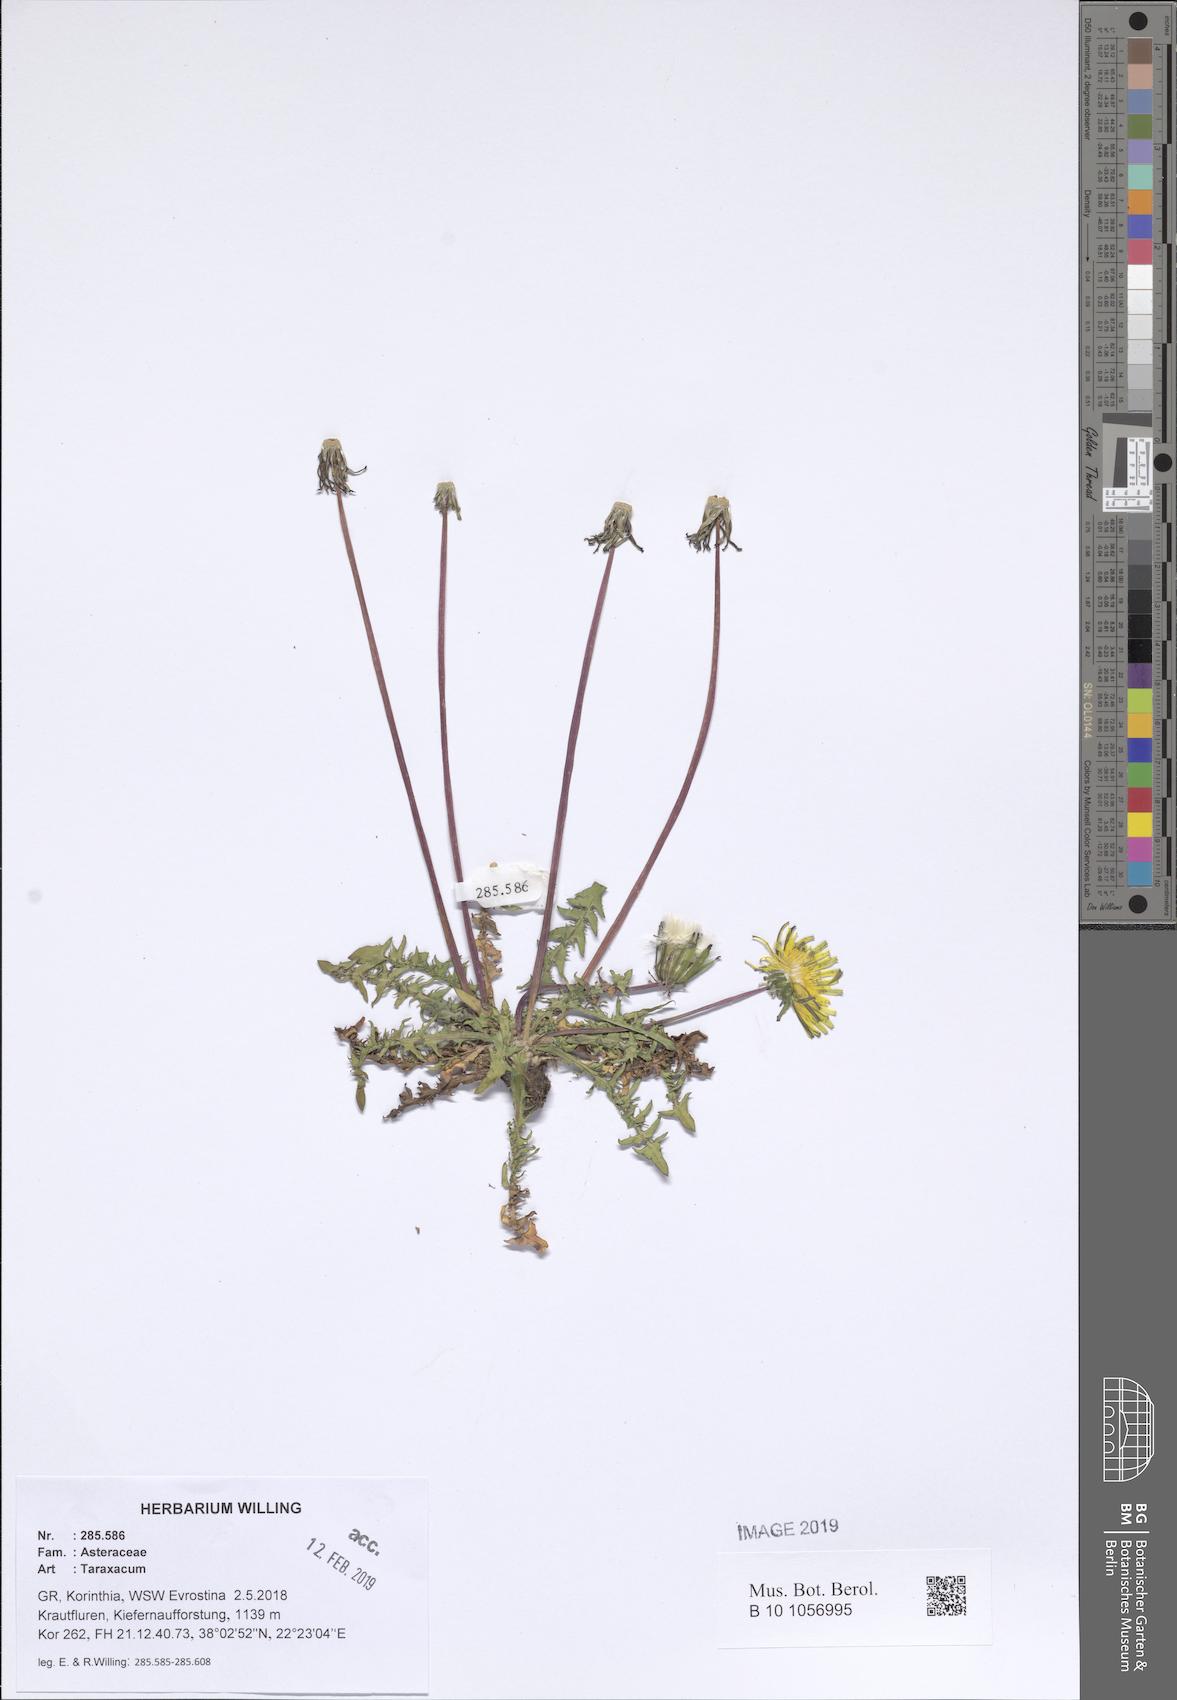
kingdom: Plantae
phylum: Tracheophyta
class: Magnoliopsida
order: Asterales
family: Asteraceae
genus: Taraxacum
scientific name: Taraxacum
